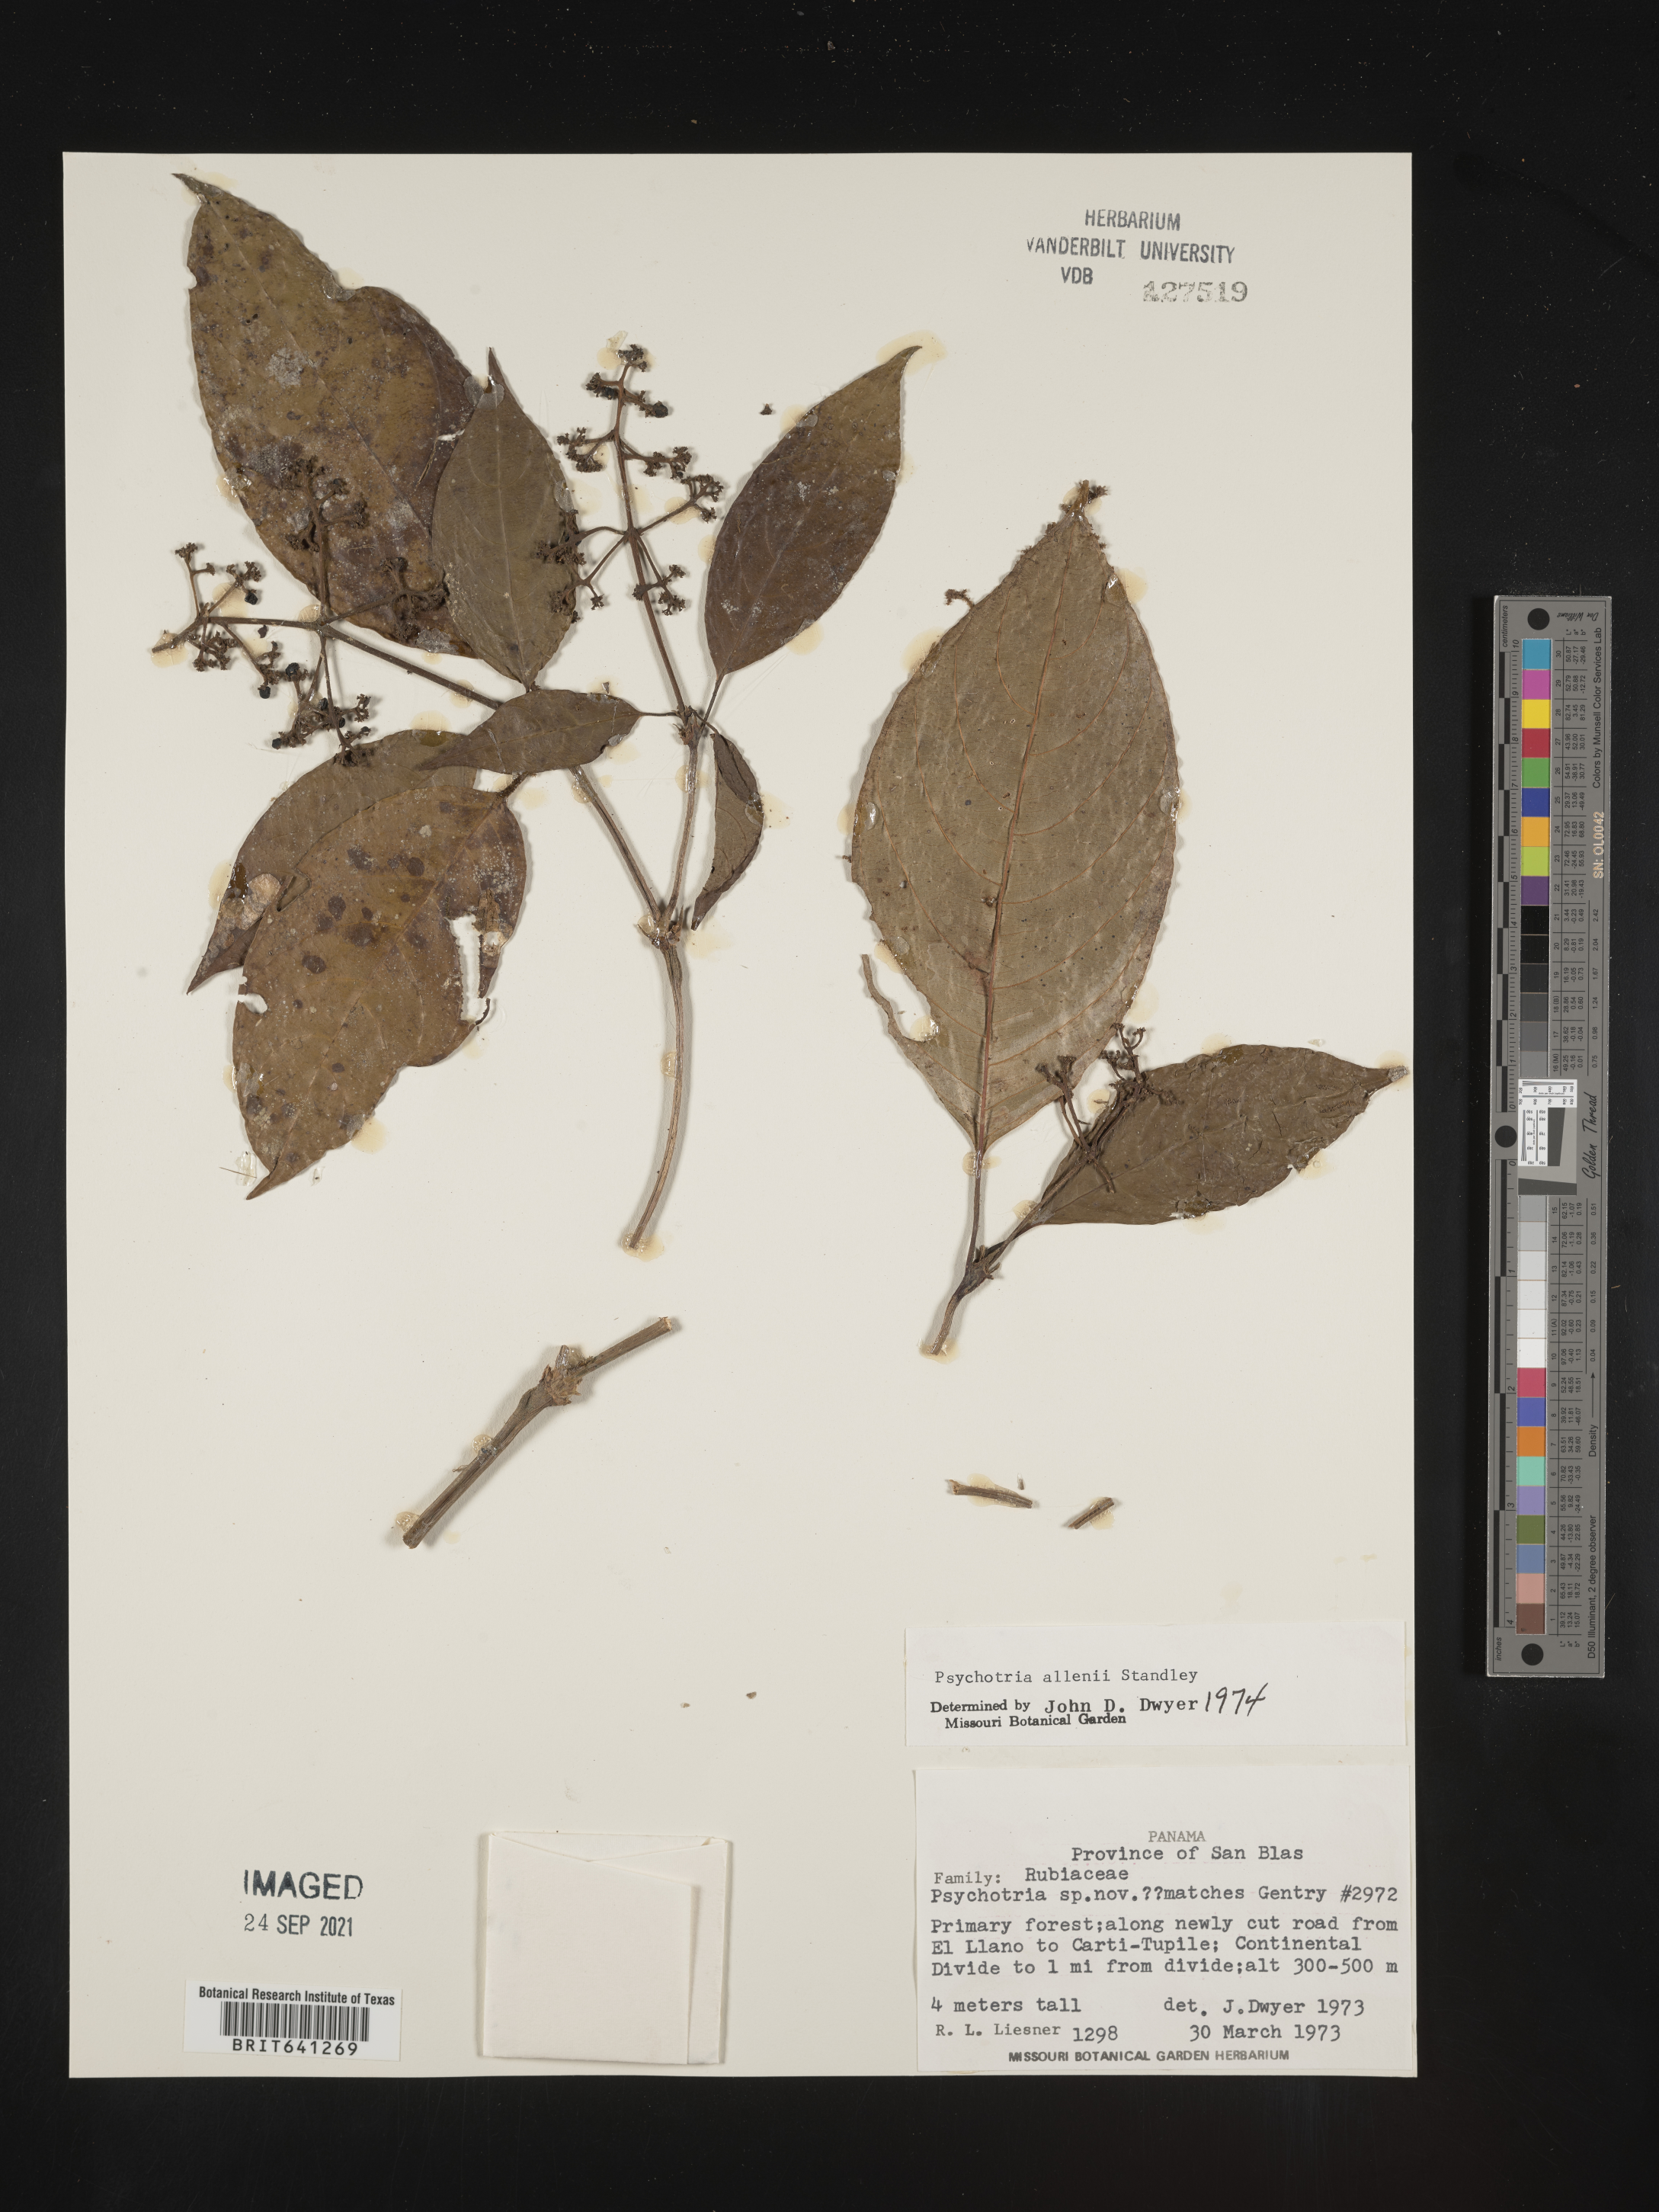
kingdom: Plantae
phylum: Tracheophyta
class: Magnoliopsida
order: Gentianales
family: Rubiaceae
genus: Psychotria
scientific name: Psychotria
